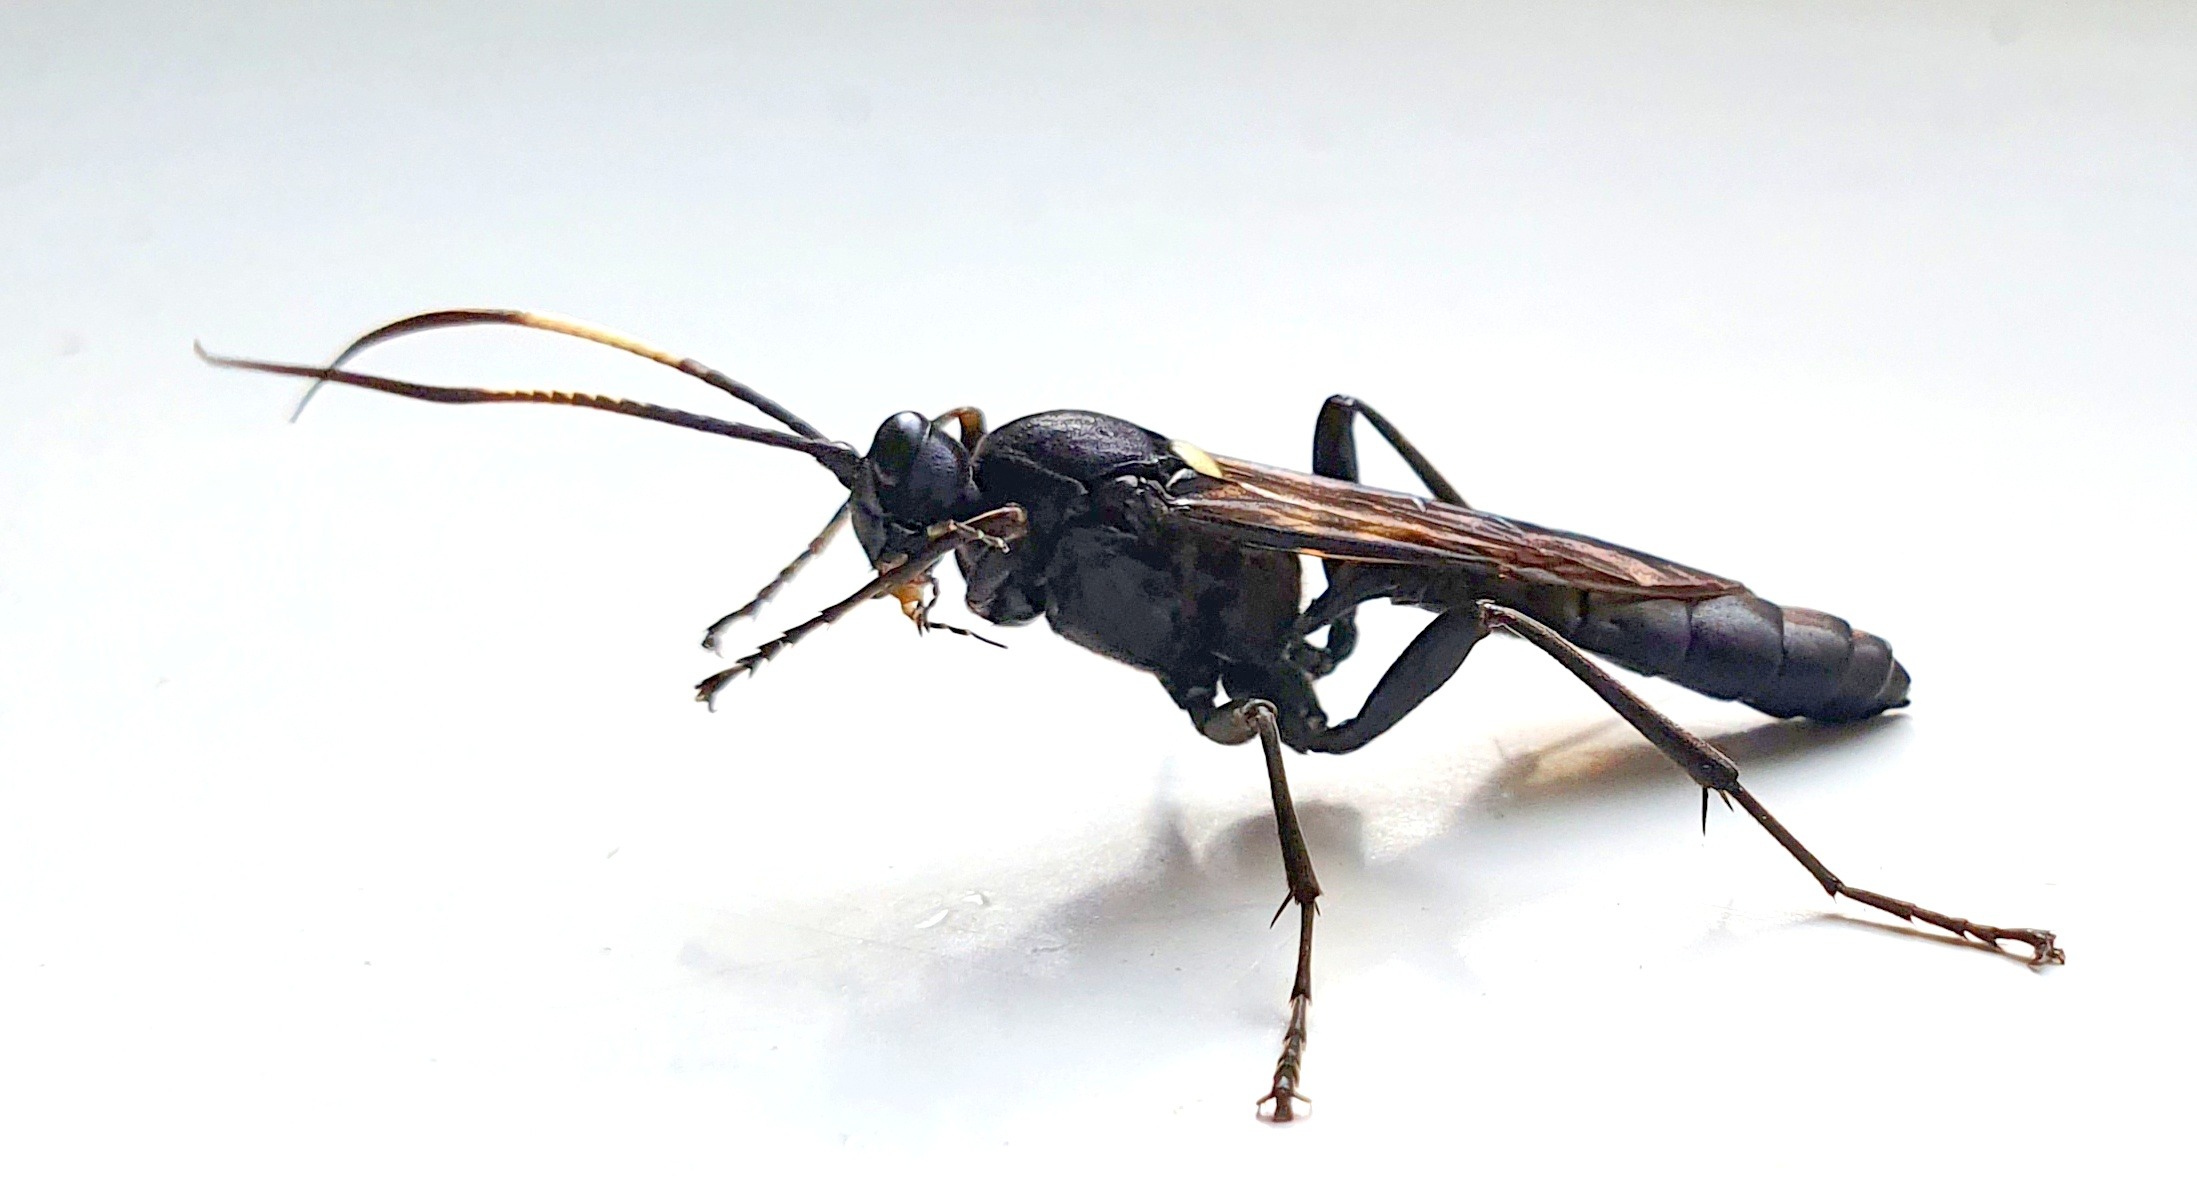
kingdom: Animalia
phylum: Arthropoda
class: Insecta
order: Hymenoptera
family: Ichneumonidae
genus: Amblyjoppa
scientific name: Amblyjoppa proteus
